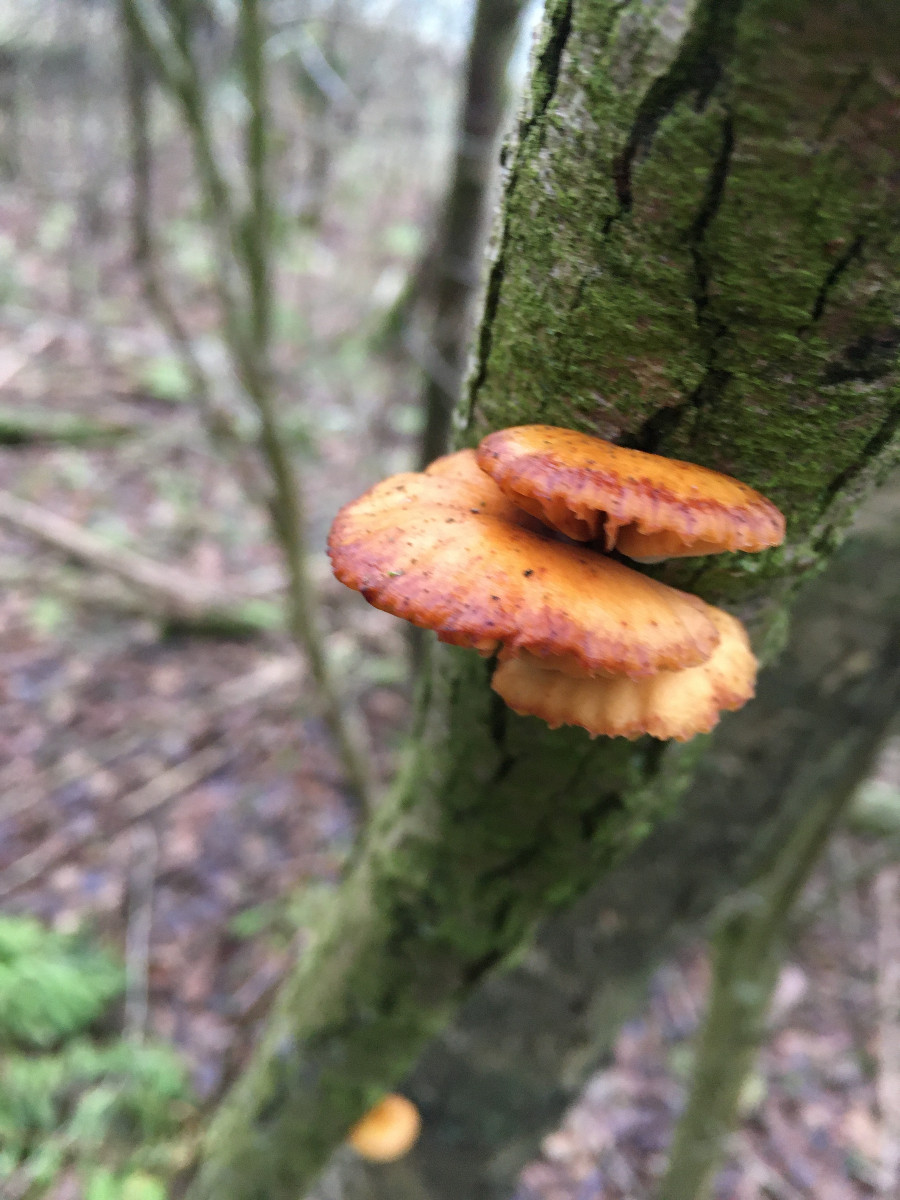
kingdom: Fungi
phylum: Basidiomycota
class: Agaricomycetes
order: Agaricales
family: Physalacriaceae
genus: Flammulina
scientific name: Flammulina velutipes
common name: gul fløjlsfod
